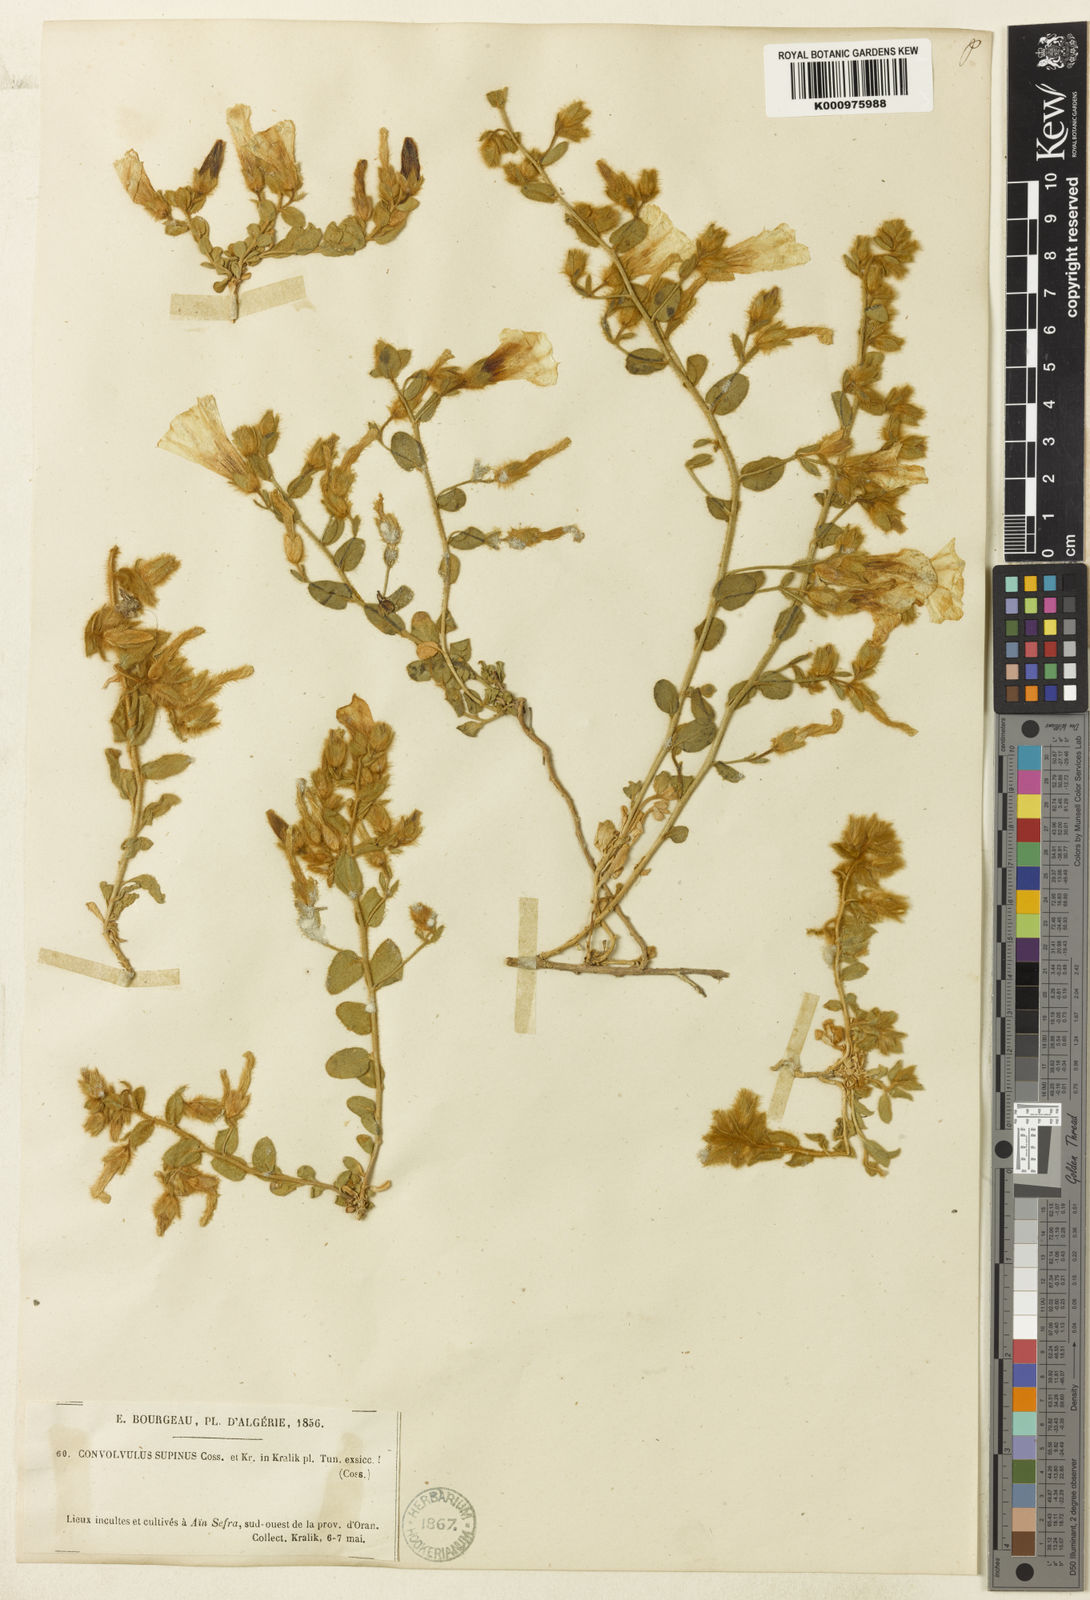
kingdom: Plantae
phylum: Tracheophyta
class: Magnoliopsida
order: Solanales
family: Convolvulaceae
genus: Convolvulus
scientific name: Convolvulus supinus
